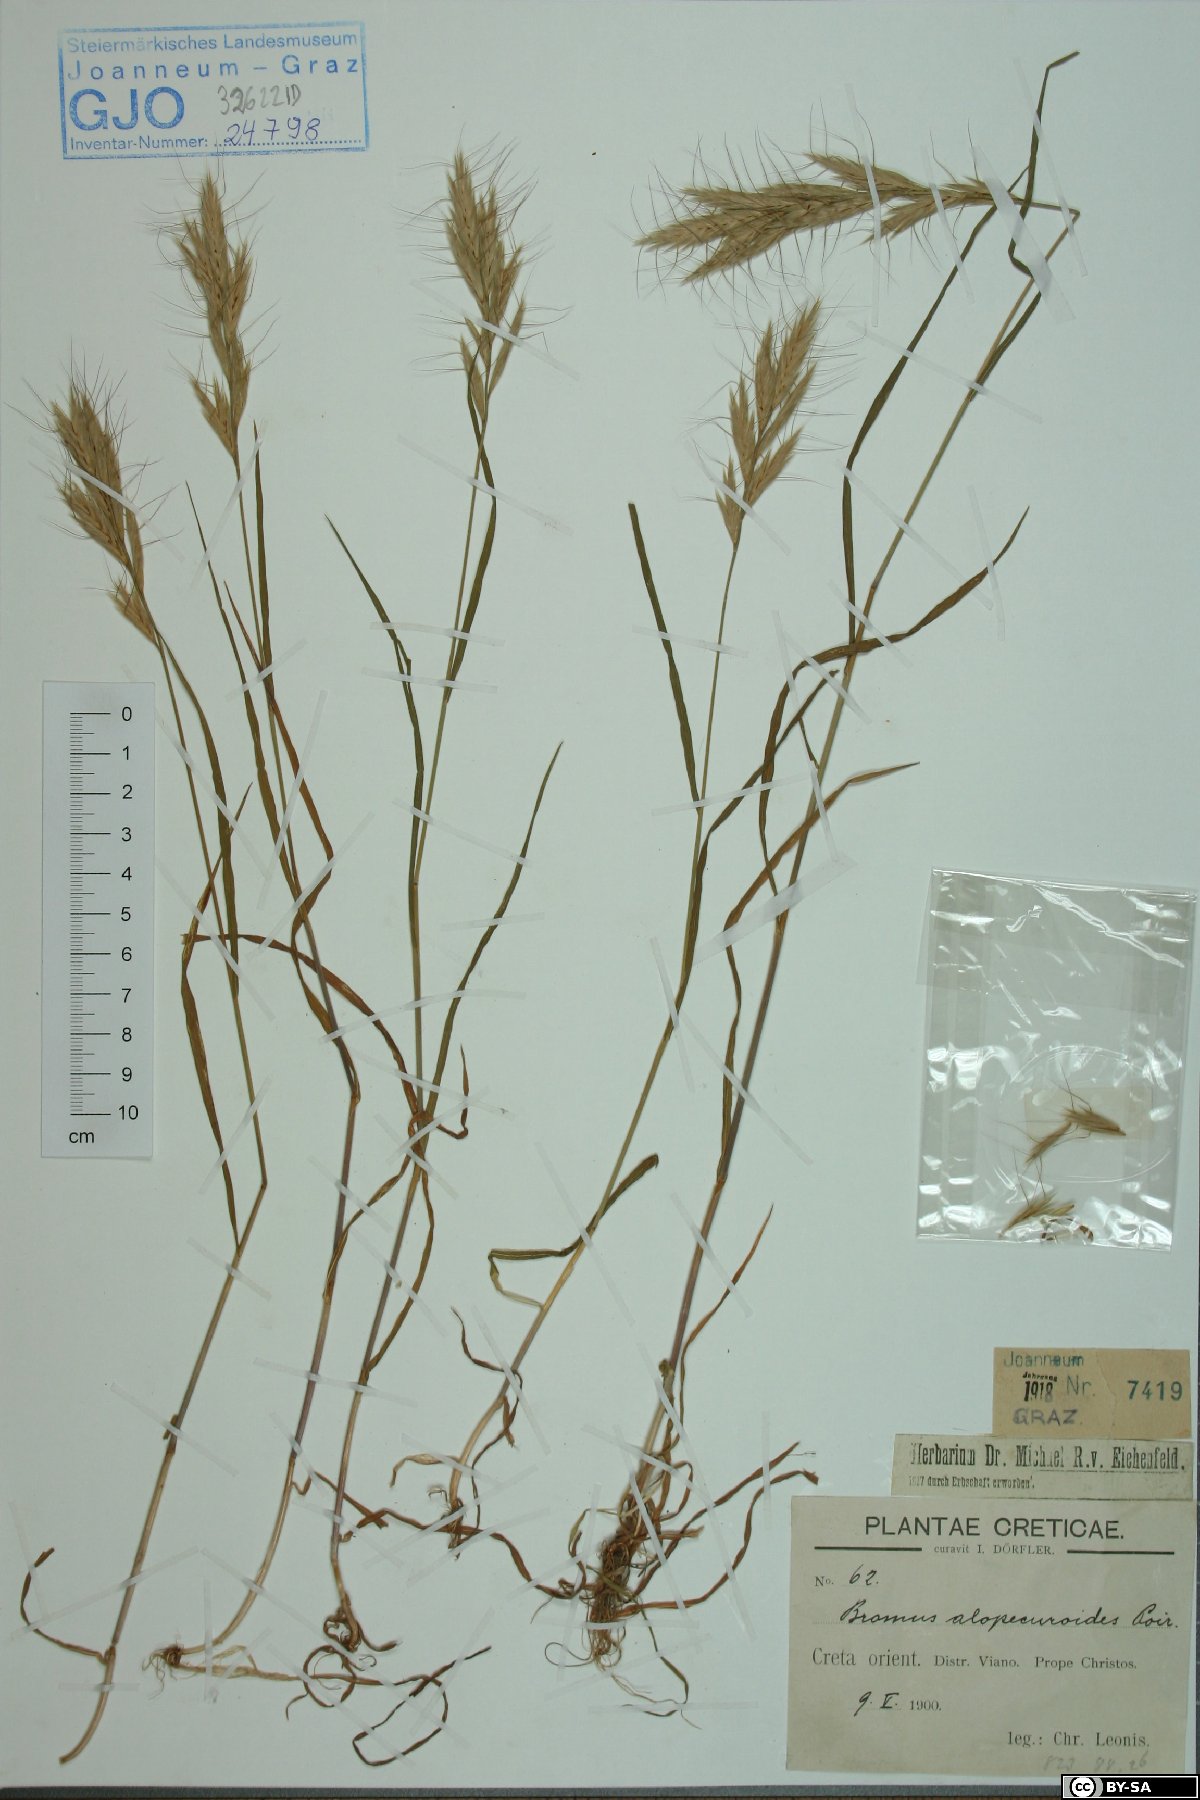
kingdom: Plantae
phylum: Tracheophyta
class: Liliopsida
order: Poales
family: Poaceae
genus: Bromus
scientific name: Bromus alopecuros
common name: Weedy brome
